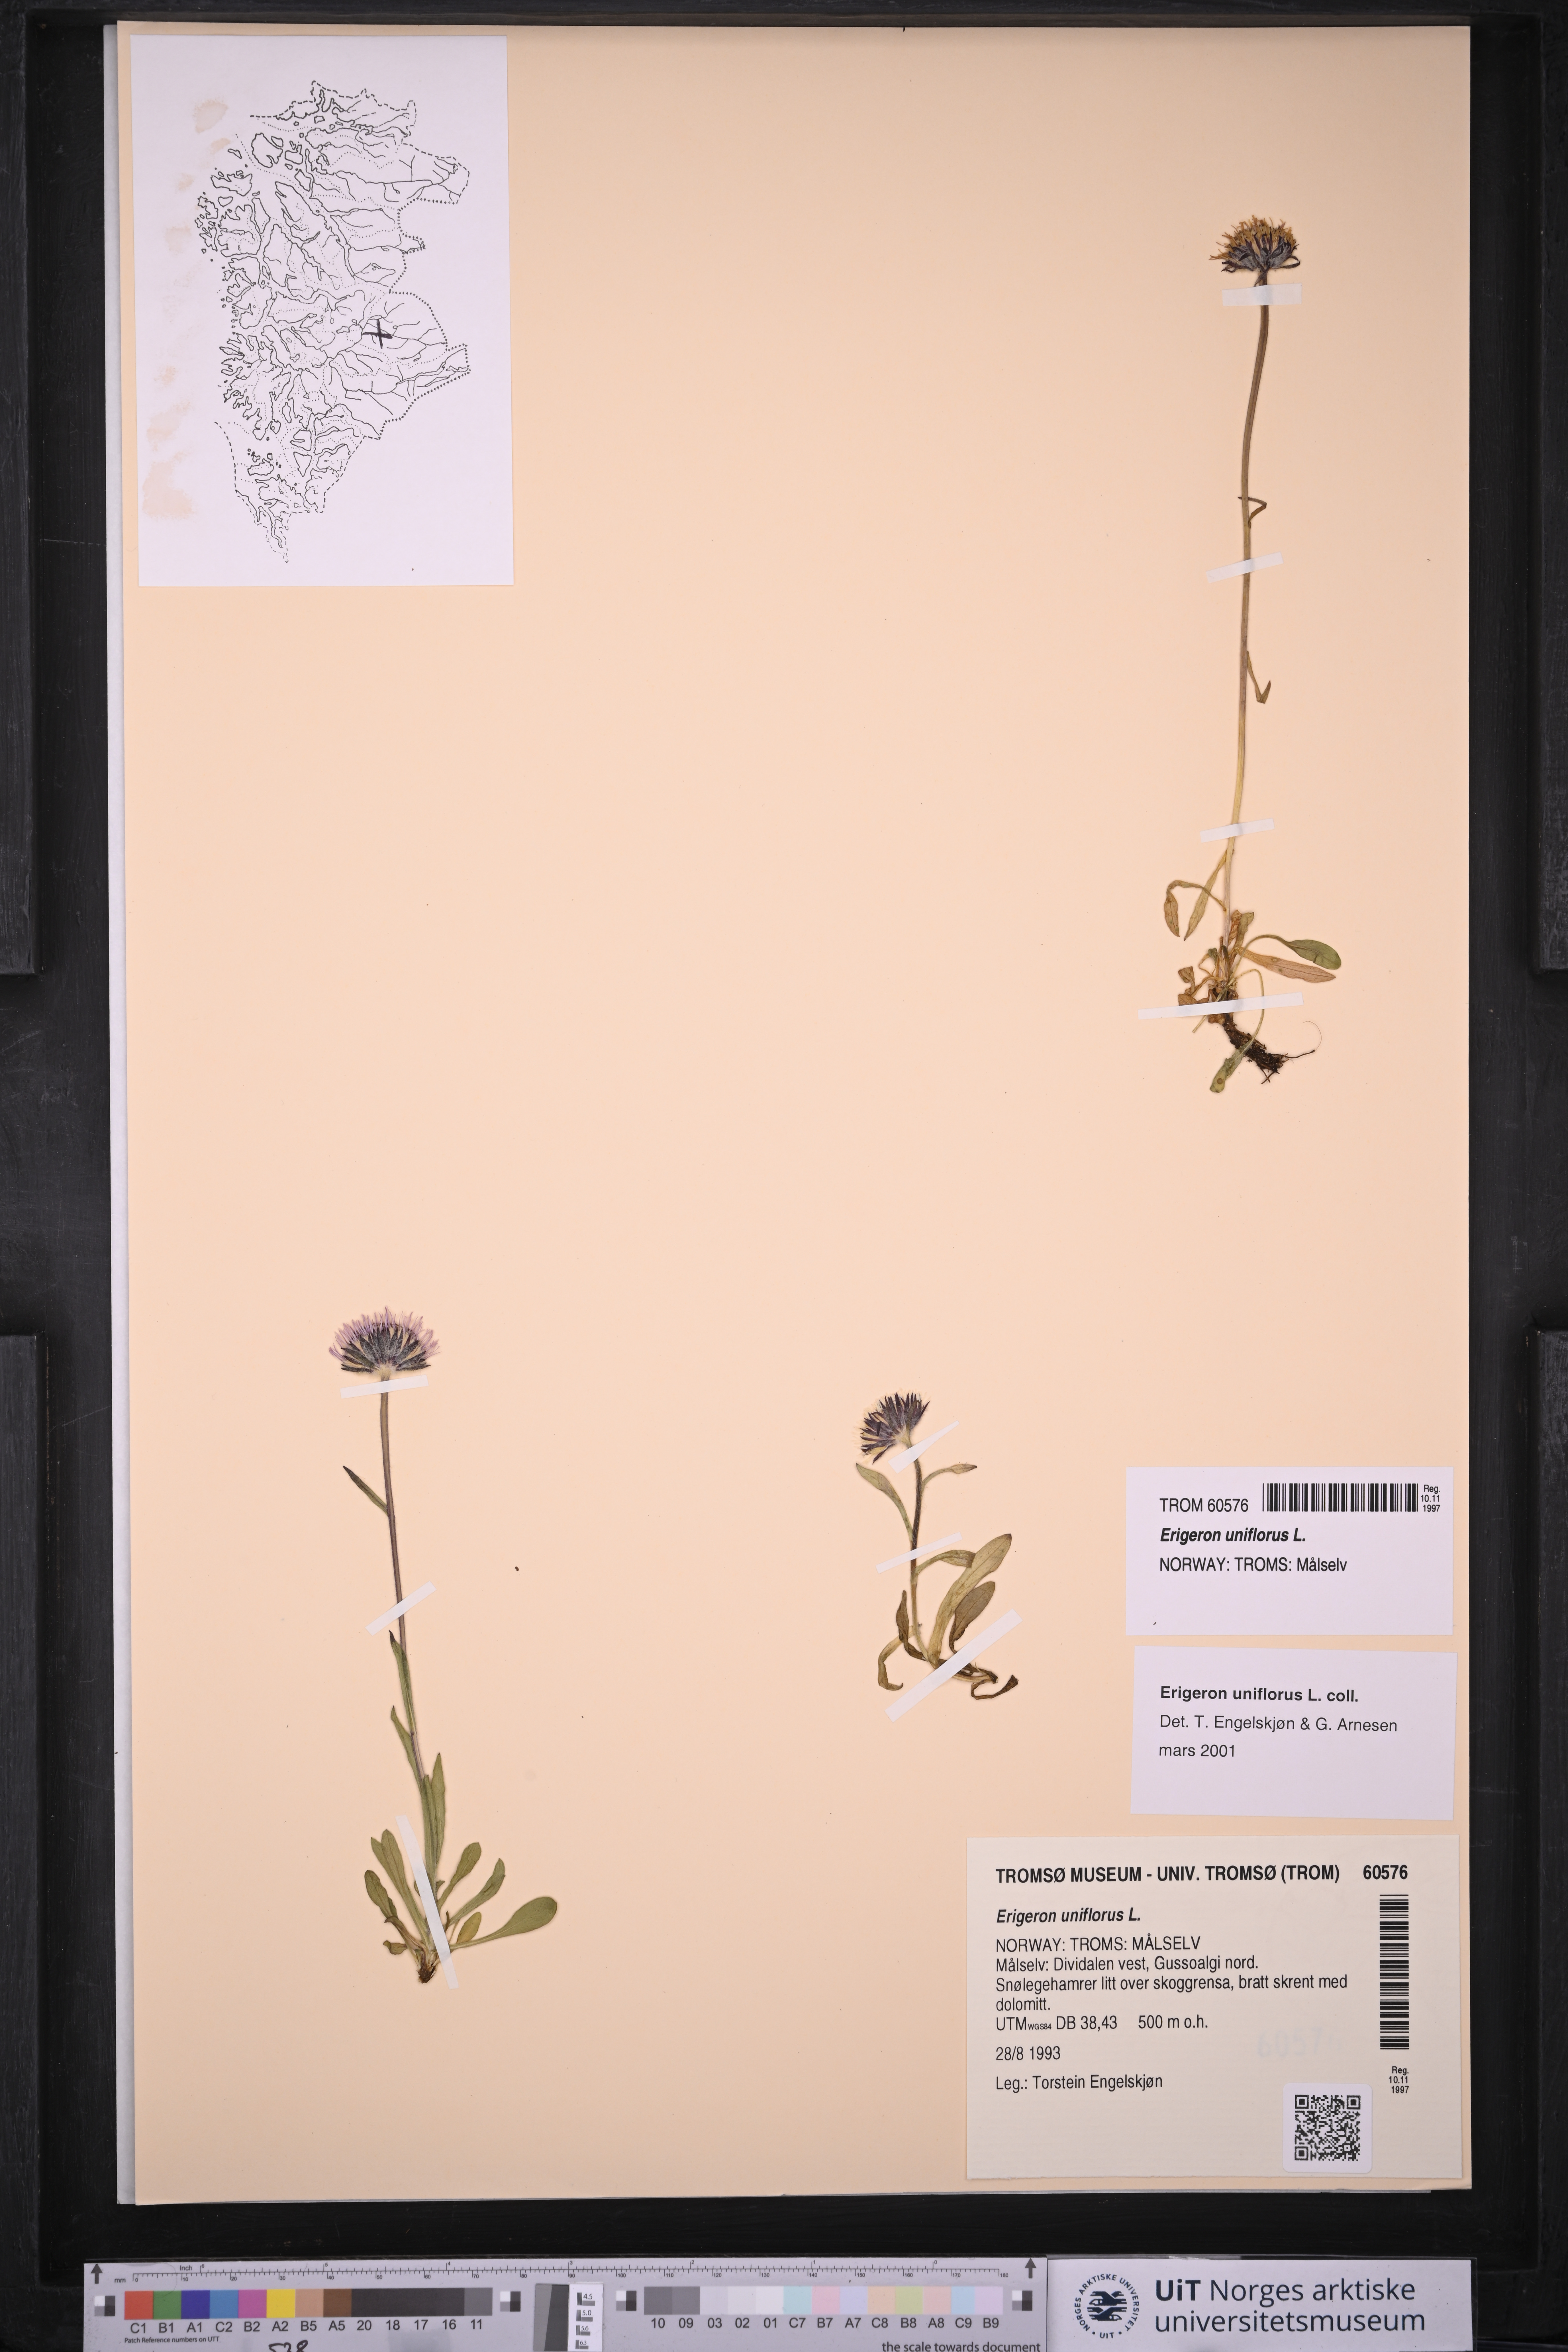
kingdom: Plantae
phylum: Tracheophyta
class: Magnoliopsida
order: Asterales
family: Asteraceae
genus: Erigeron
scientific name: Erigeron uniflorus
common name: Northern daisy
